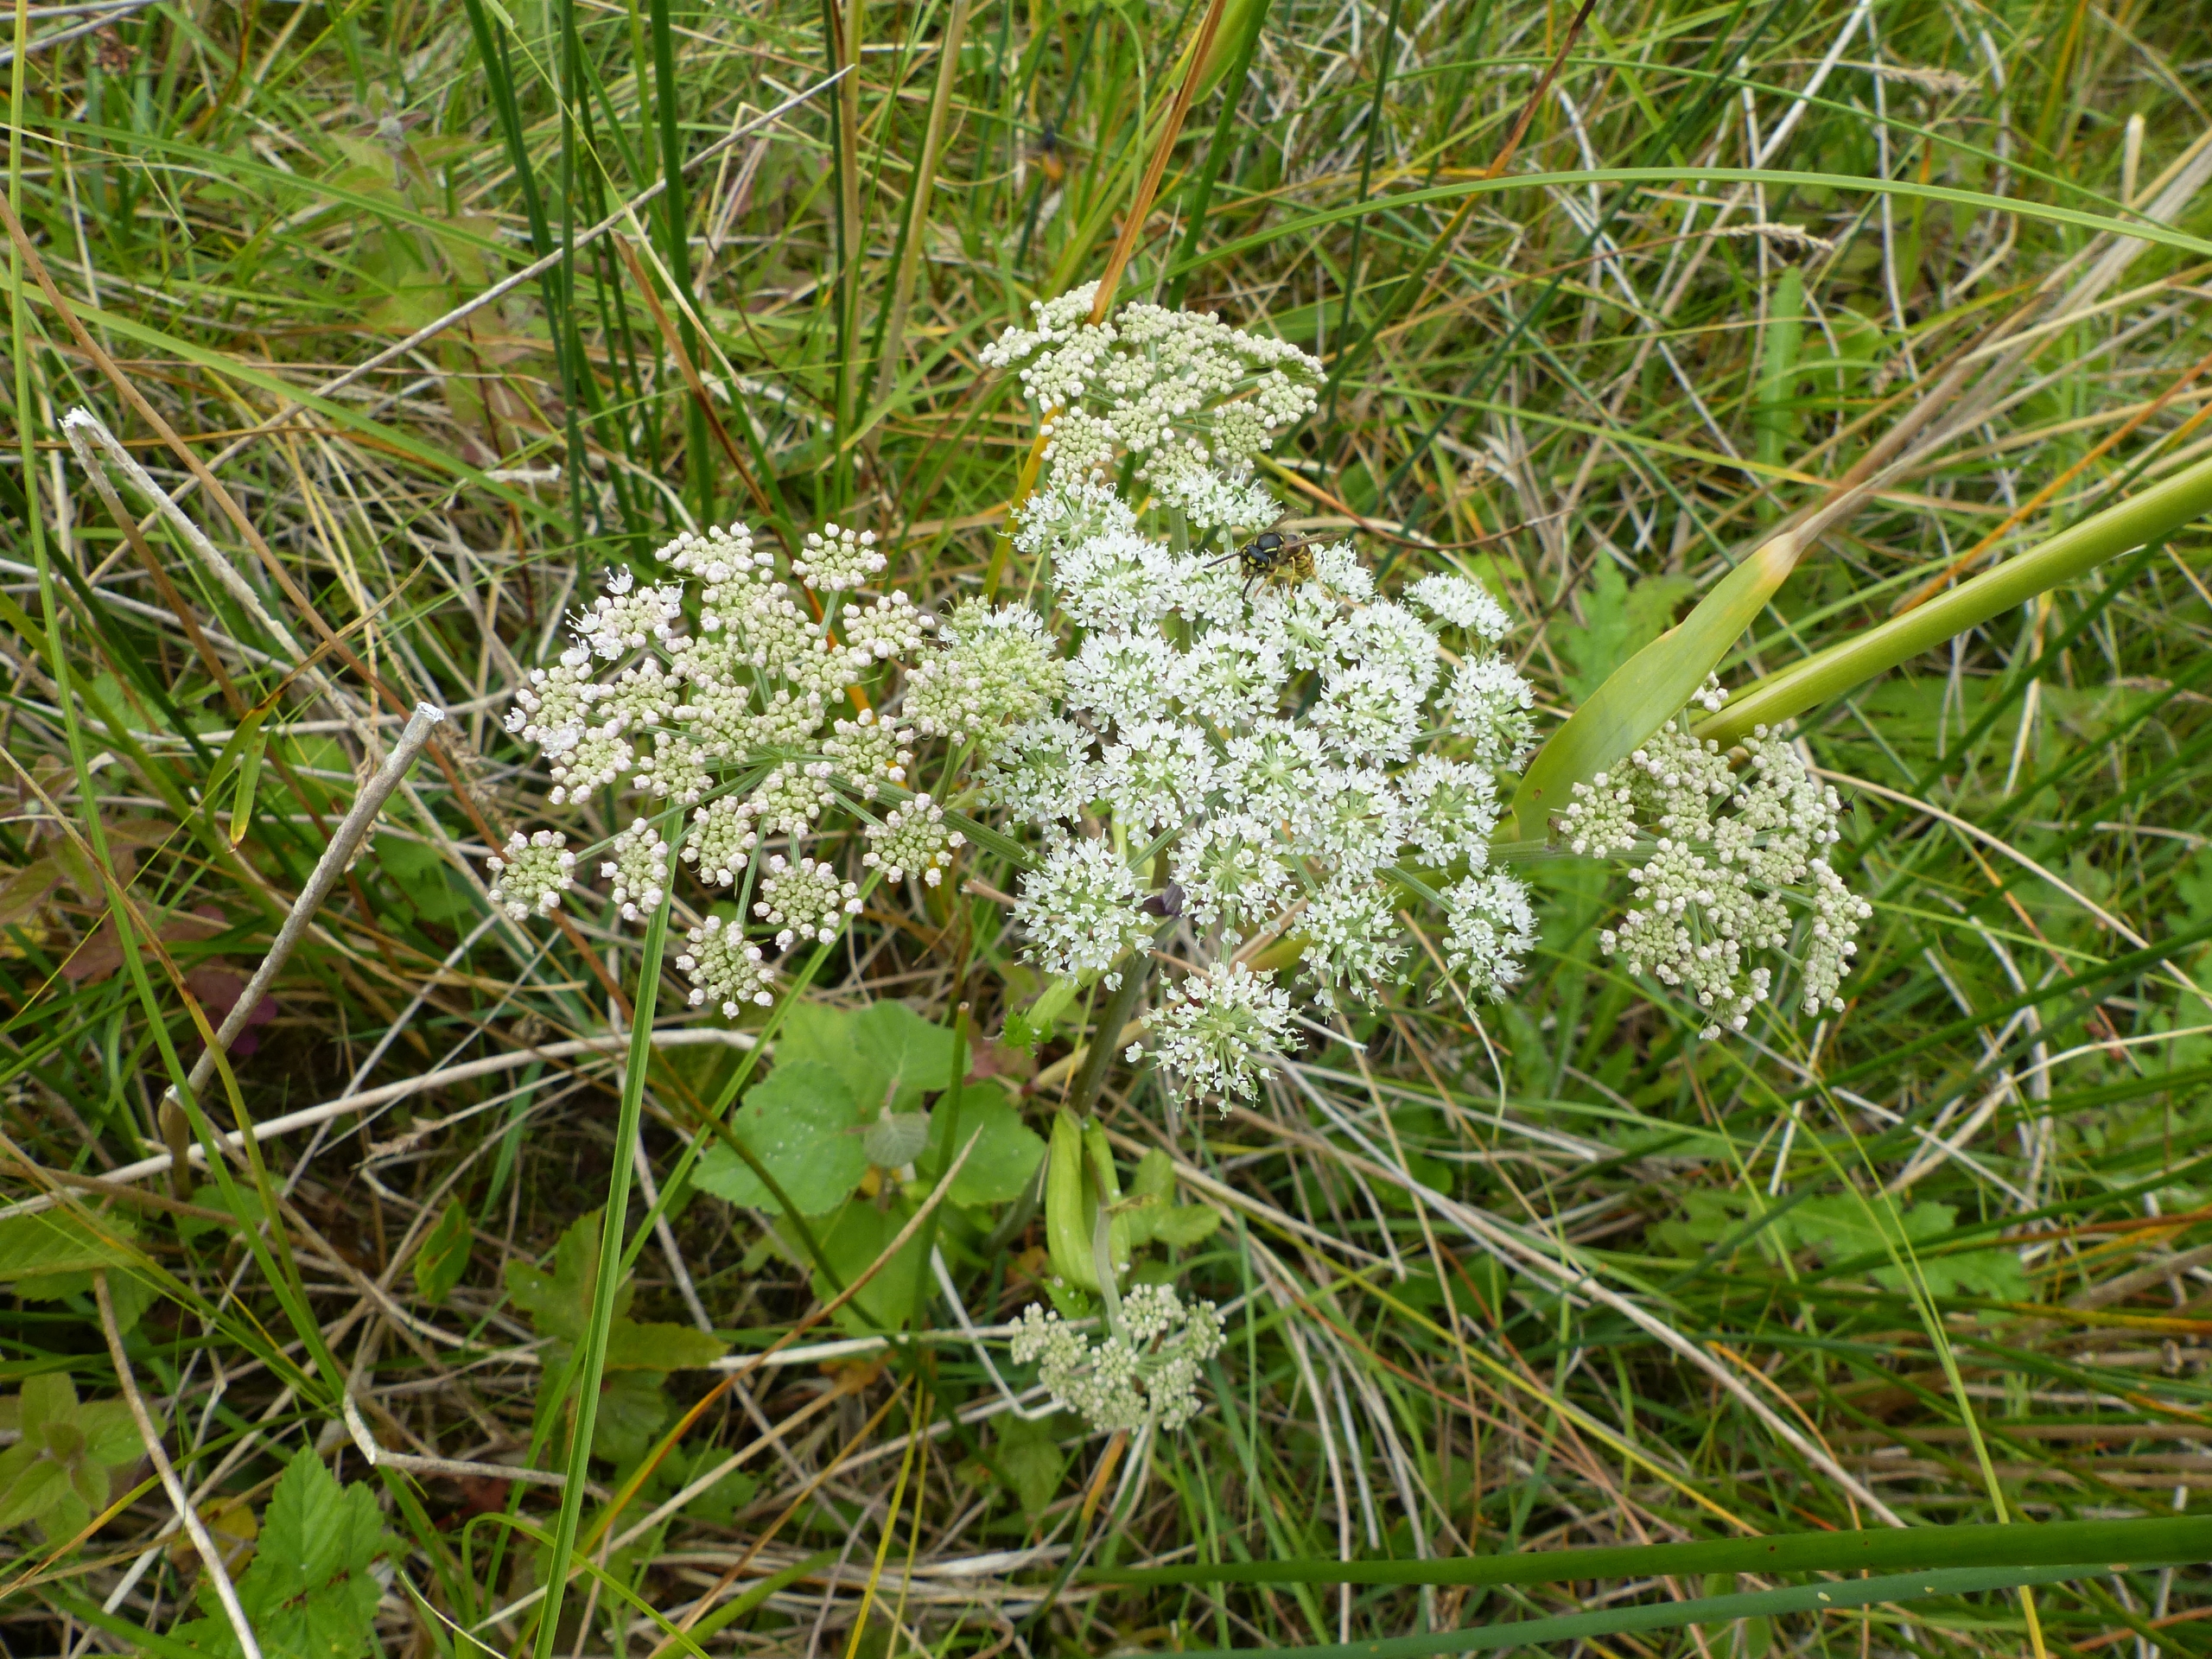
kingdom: Plantae
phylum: Tracheophyta
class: Magnoliopsida
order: Apiales
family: Apiaceae
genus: Angelica
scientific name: Angelica sylvestris
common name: Angelik
